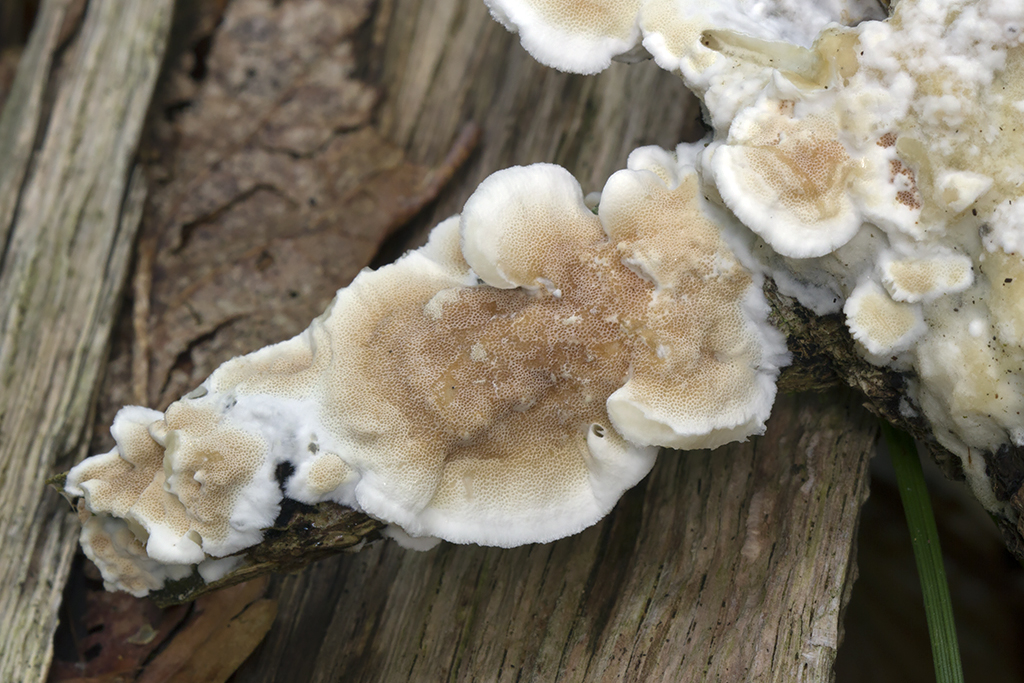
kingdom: Fungi
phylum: Basidiomycota
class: Agaricomycetes
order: Polyporales
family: Irpicaceae
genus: Vitreoporus
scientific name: Vitreoporus dichrous
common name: tofarvet foldporesvamp
